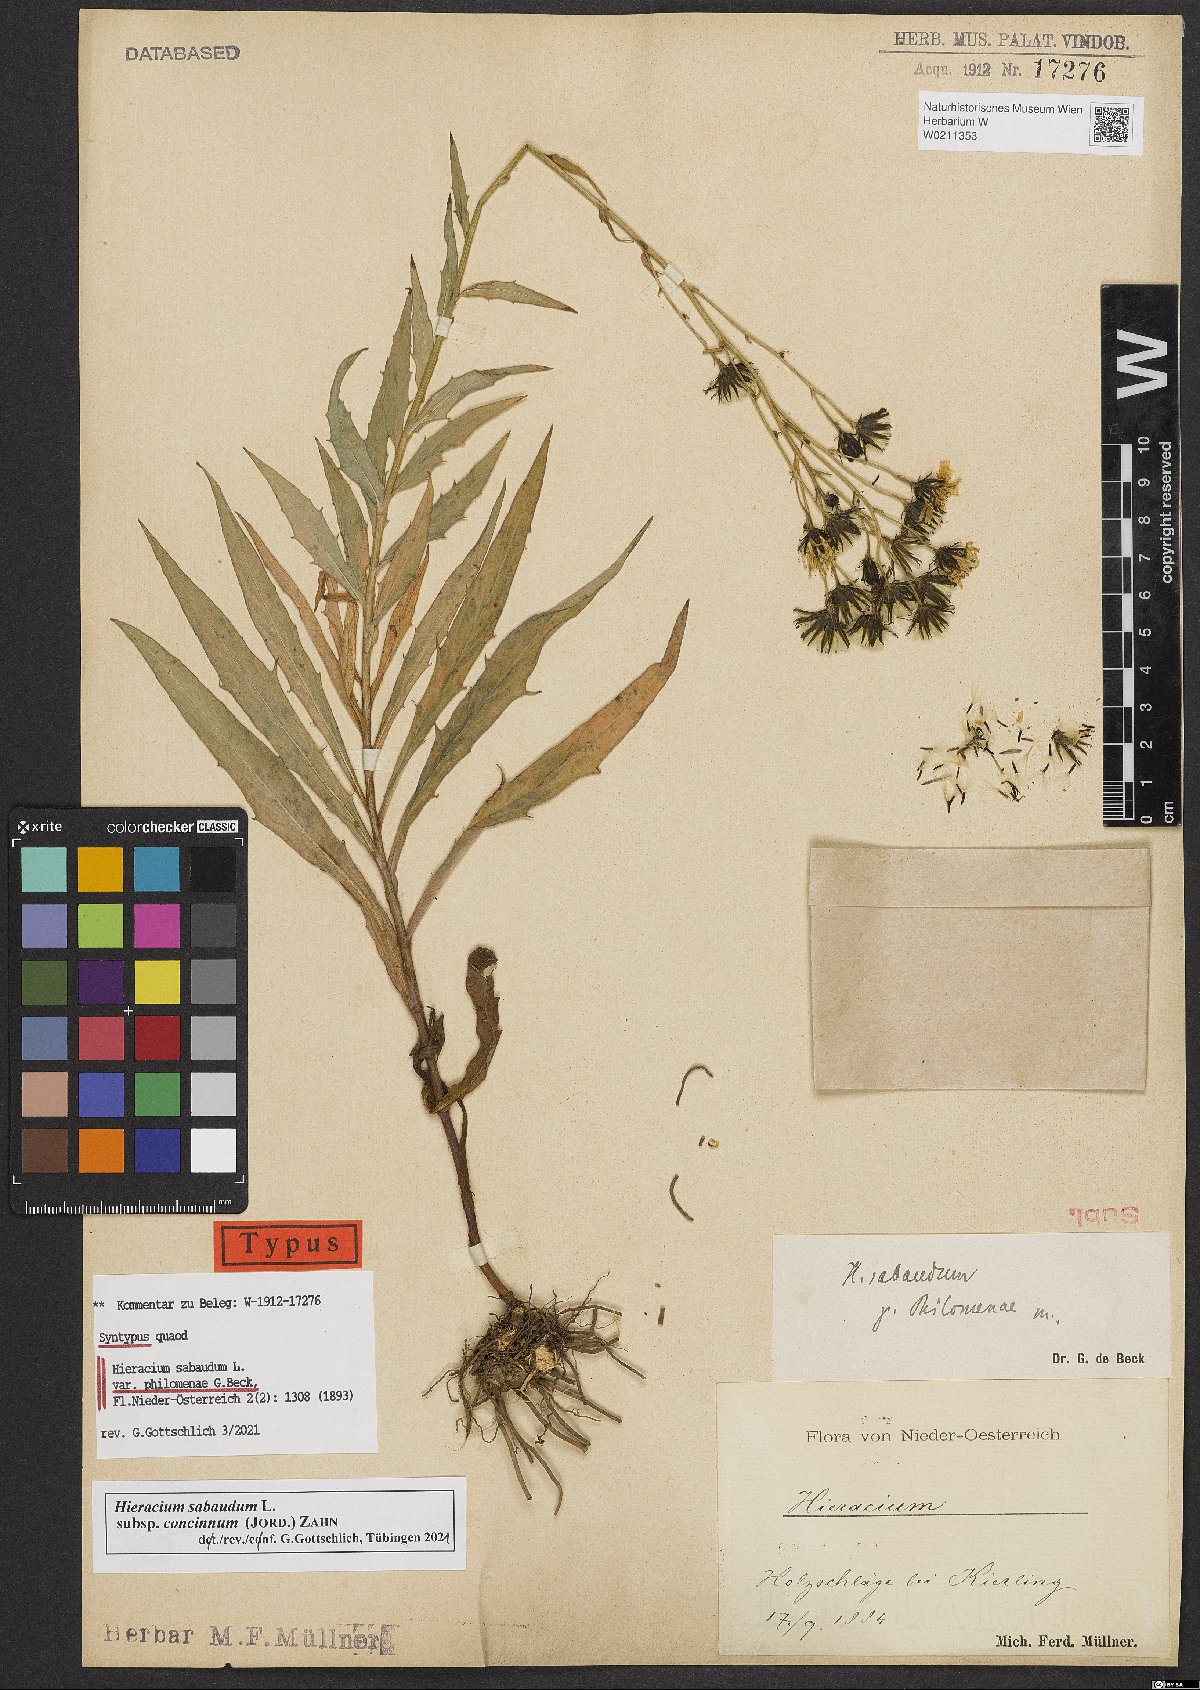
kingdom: Plantae
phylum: Tracheophyta
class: Magnoliopsida
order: Asterales
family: Asteraceae
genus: Hieracium
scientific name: Hieracium neostenophyllum
